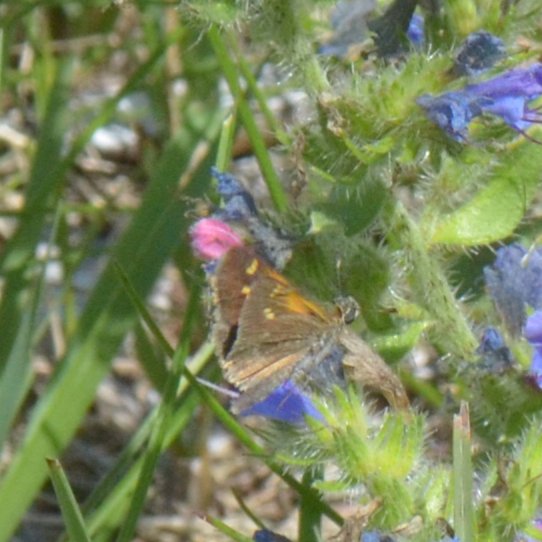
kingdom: Animalia
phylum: Arthropoda
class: Insecta
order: Lepidoptera
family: Hesperiidae
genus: Polites
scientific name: Polites themistocles
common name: Tawny-edged Skipper
